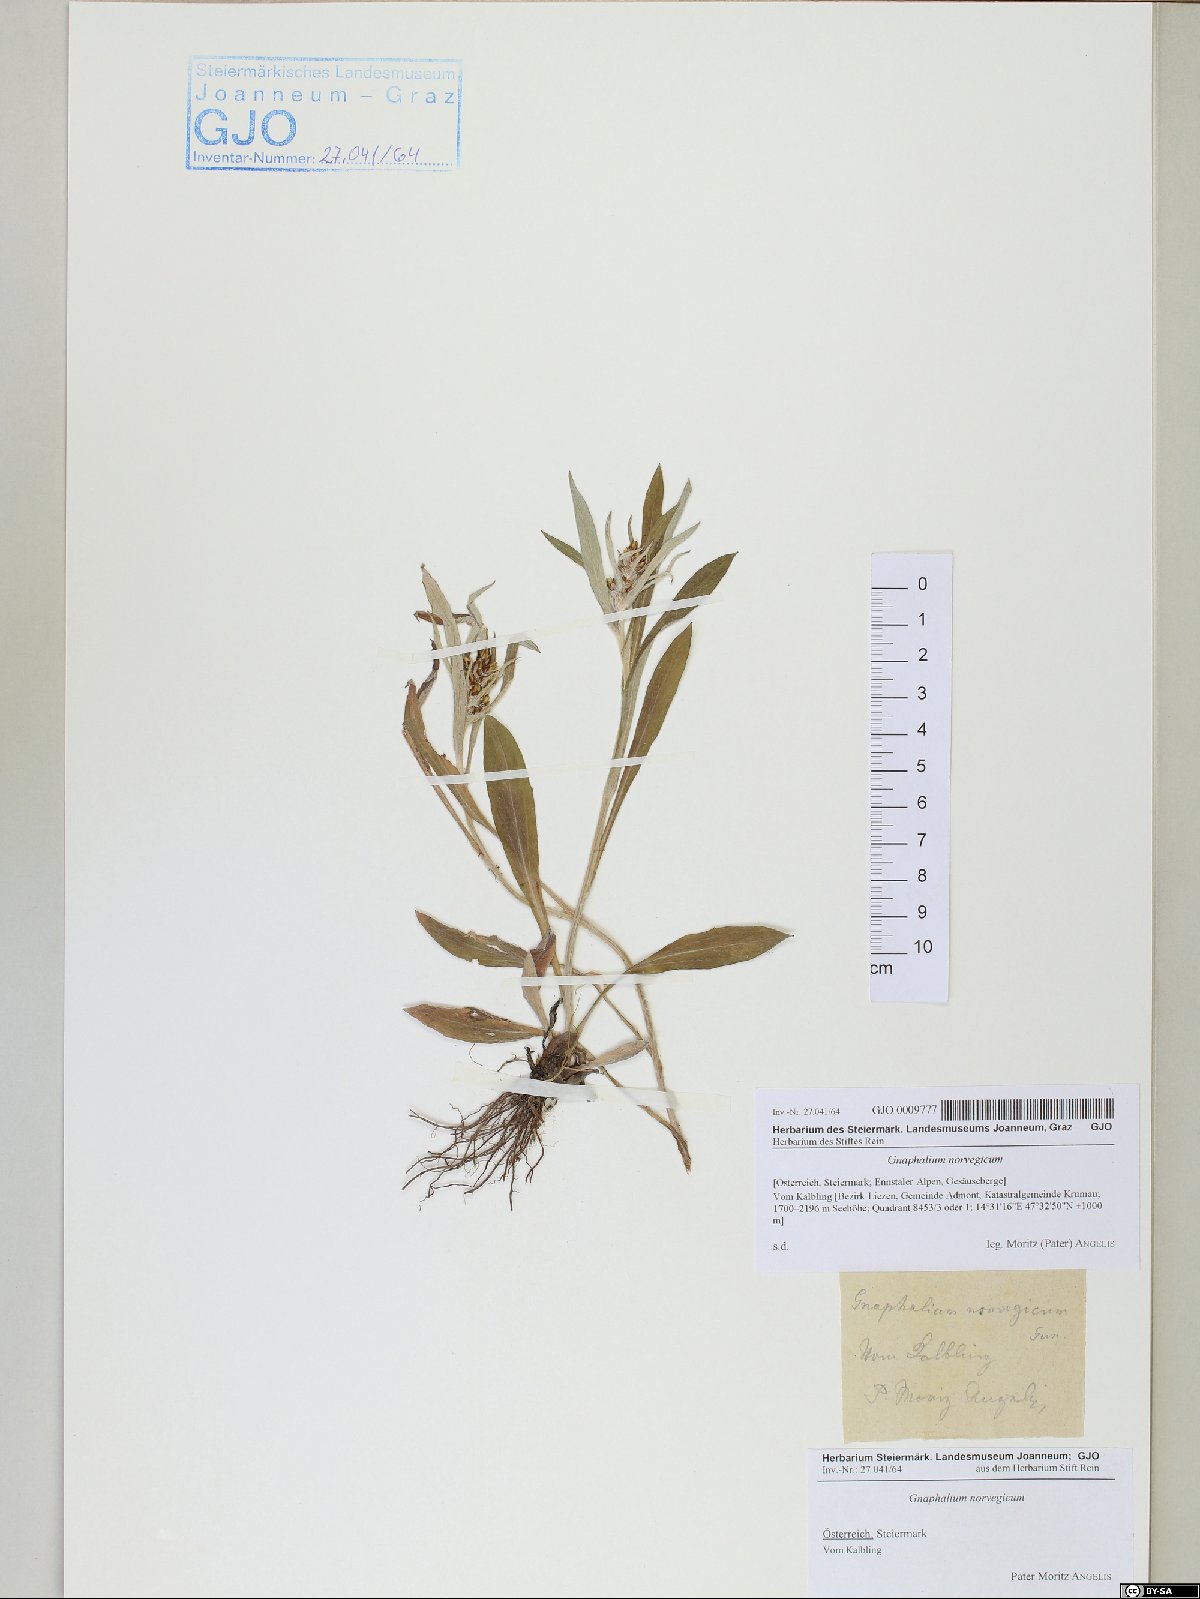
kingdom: Plantae
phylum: Tracheophyta
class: Magnoliopsida
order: Asterales
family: Asteraceae
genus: Omalotheca
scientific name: Omalotheca norvegica
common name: Norwegian arctic-cudweed
